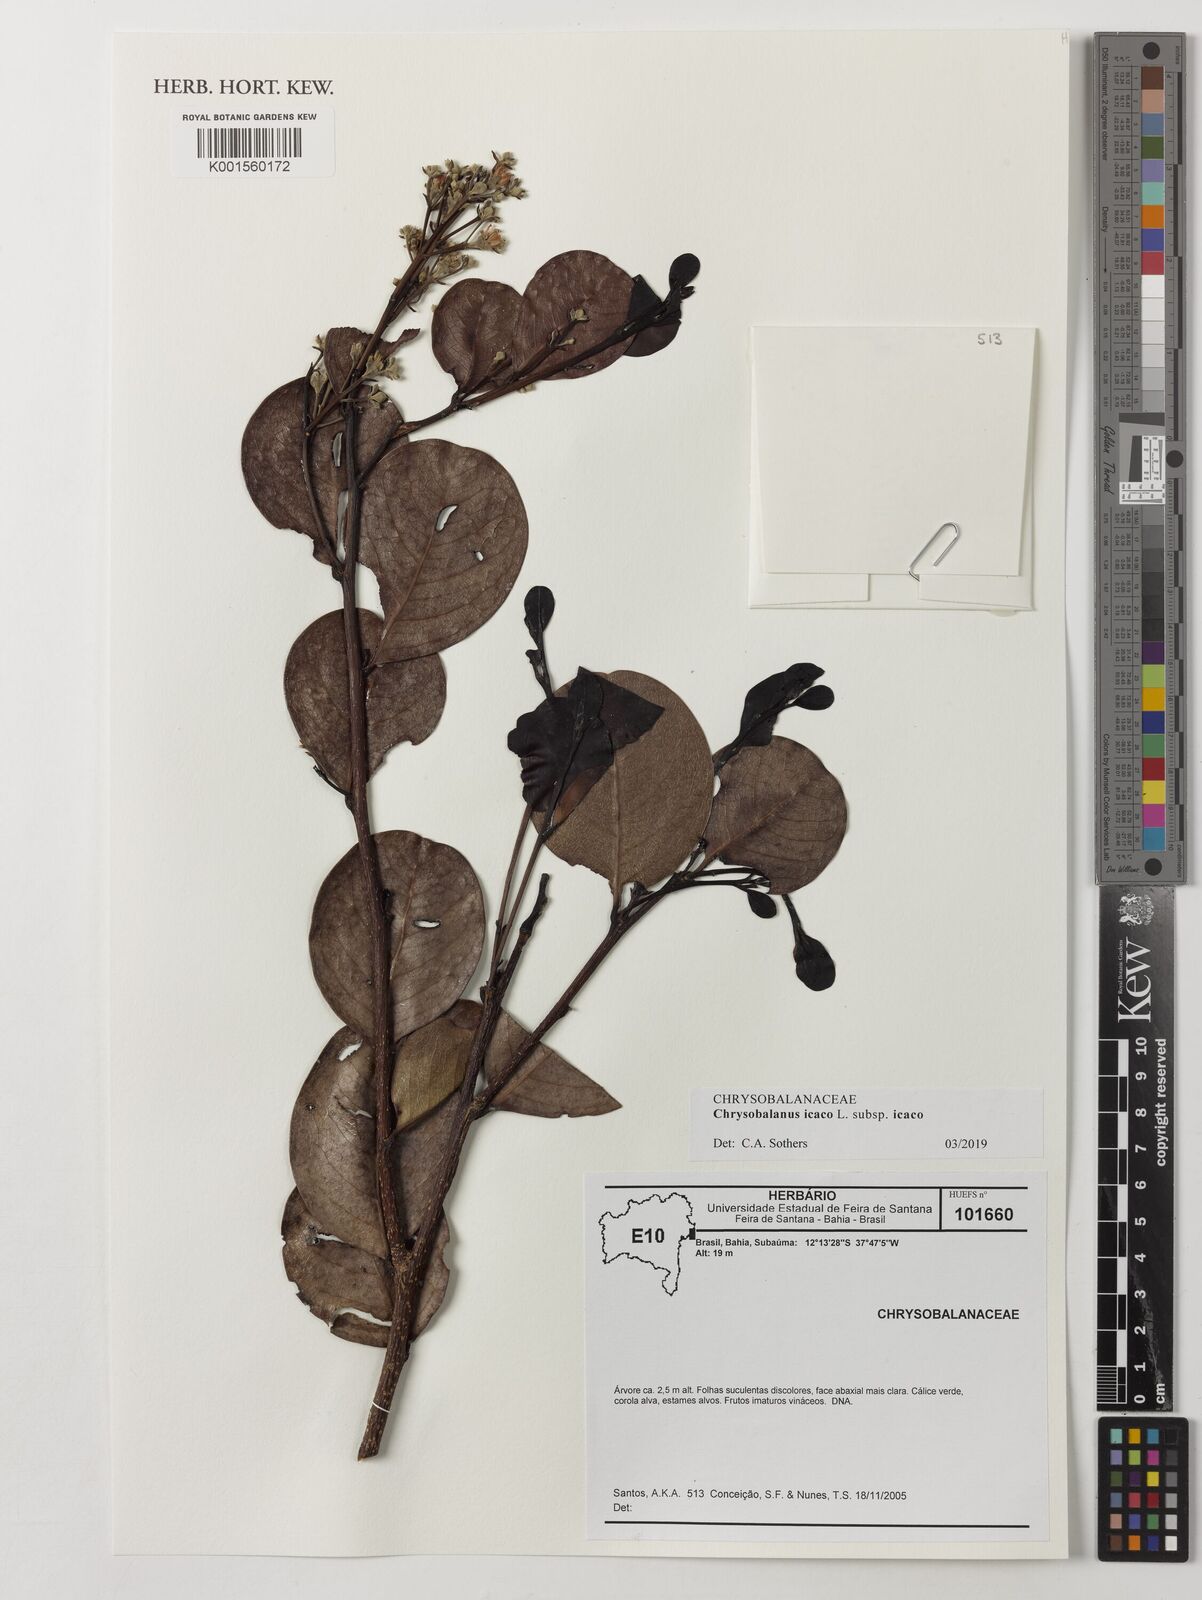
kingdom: Plantae
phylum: Tracheophyta
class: Magnoliopsida
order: Malpighiales
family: Chrysobalanaceae
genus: Chrysobalanus
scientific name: Chrysobalanus icaco
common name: Coco plum
